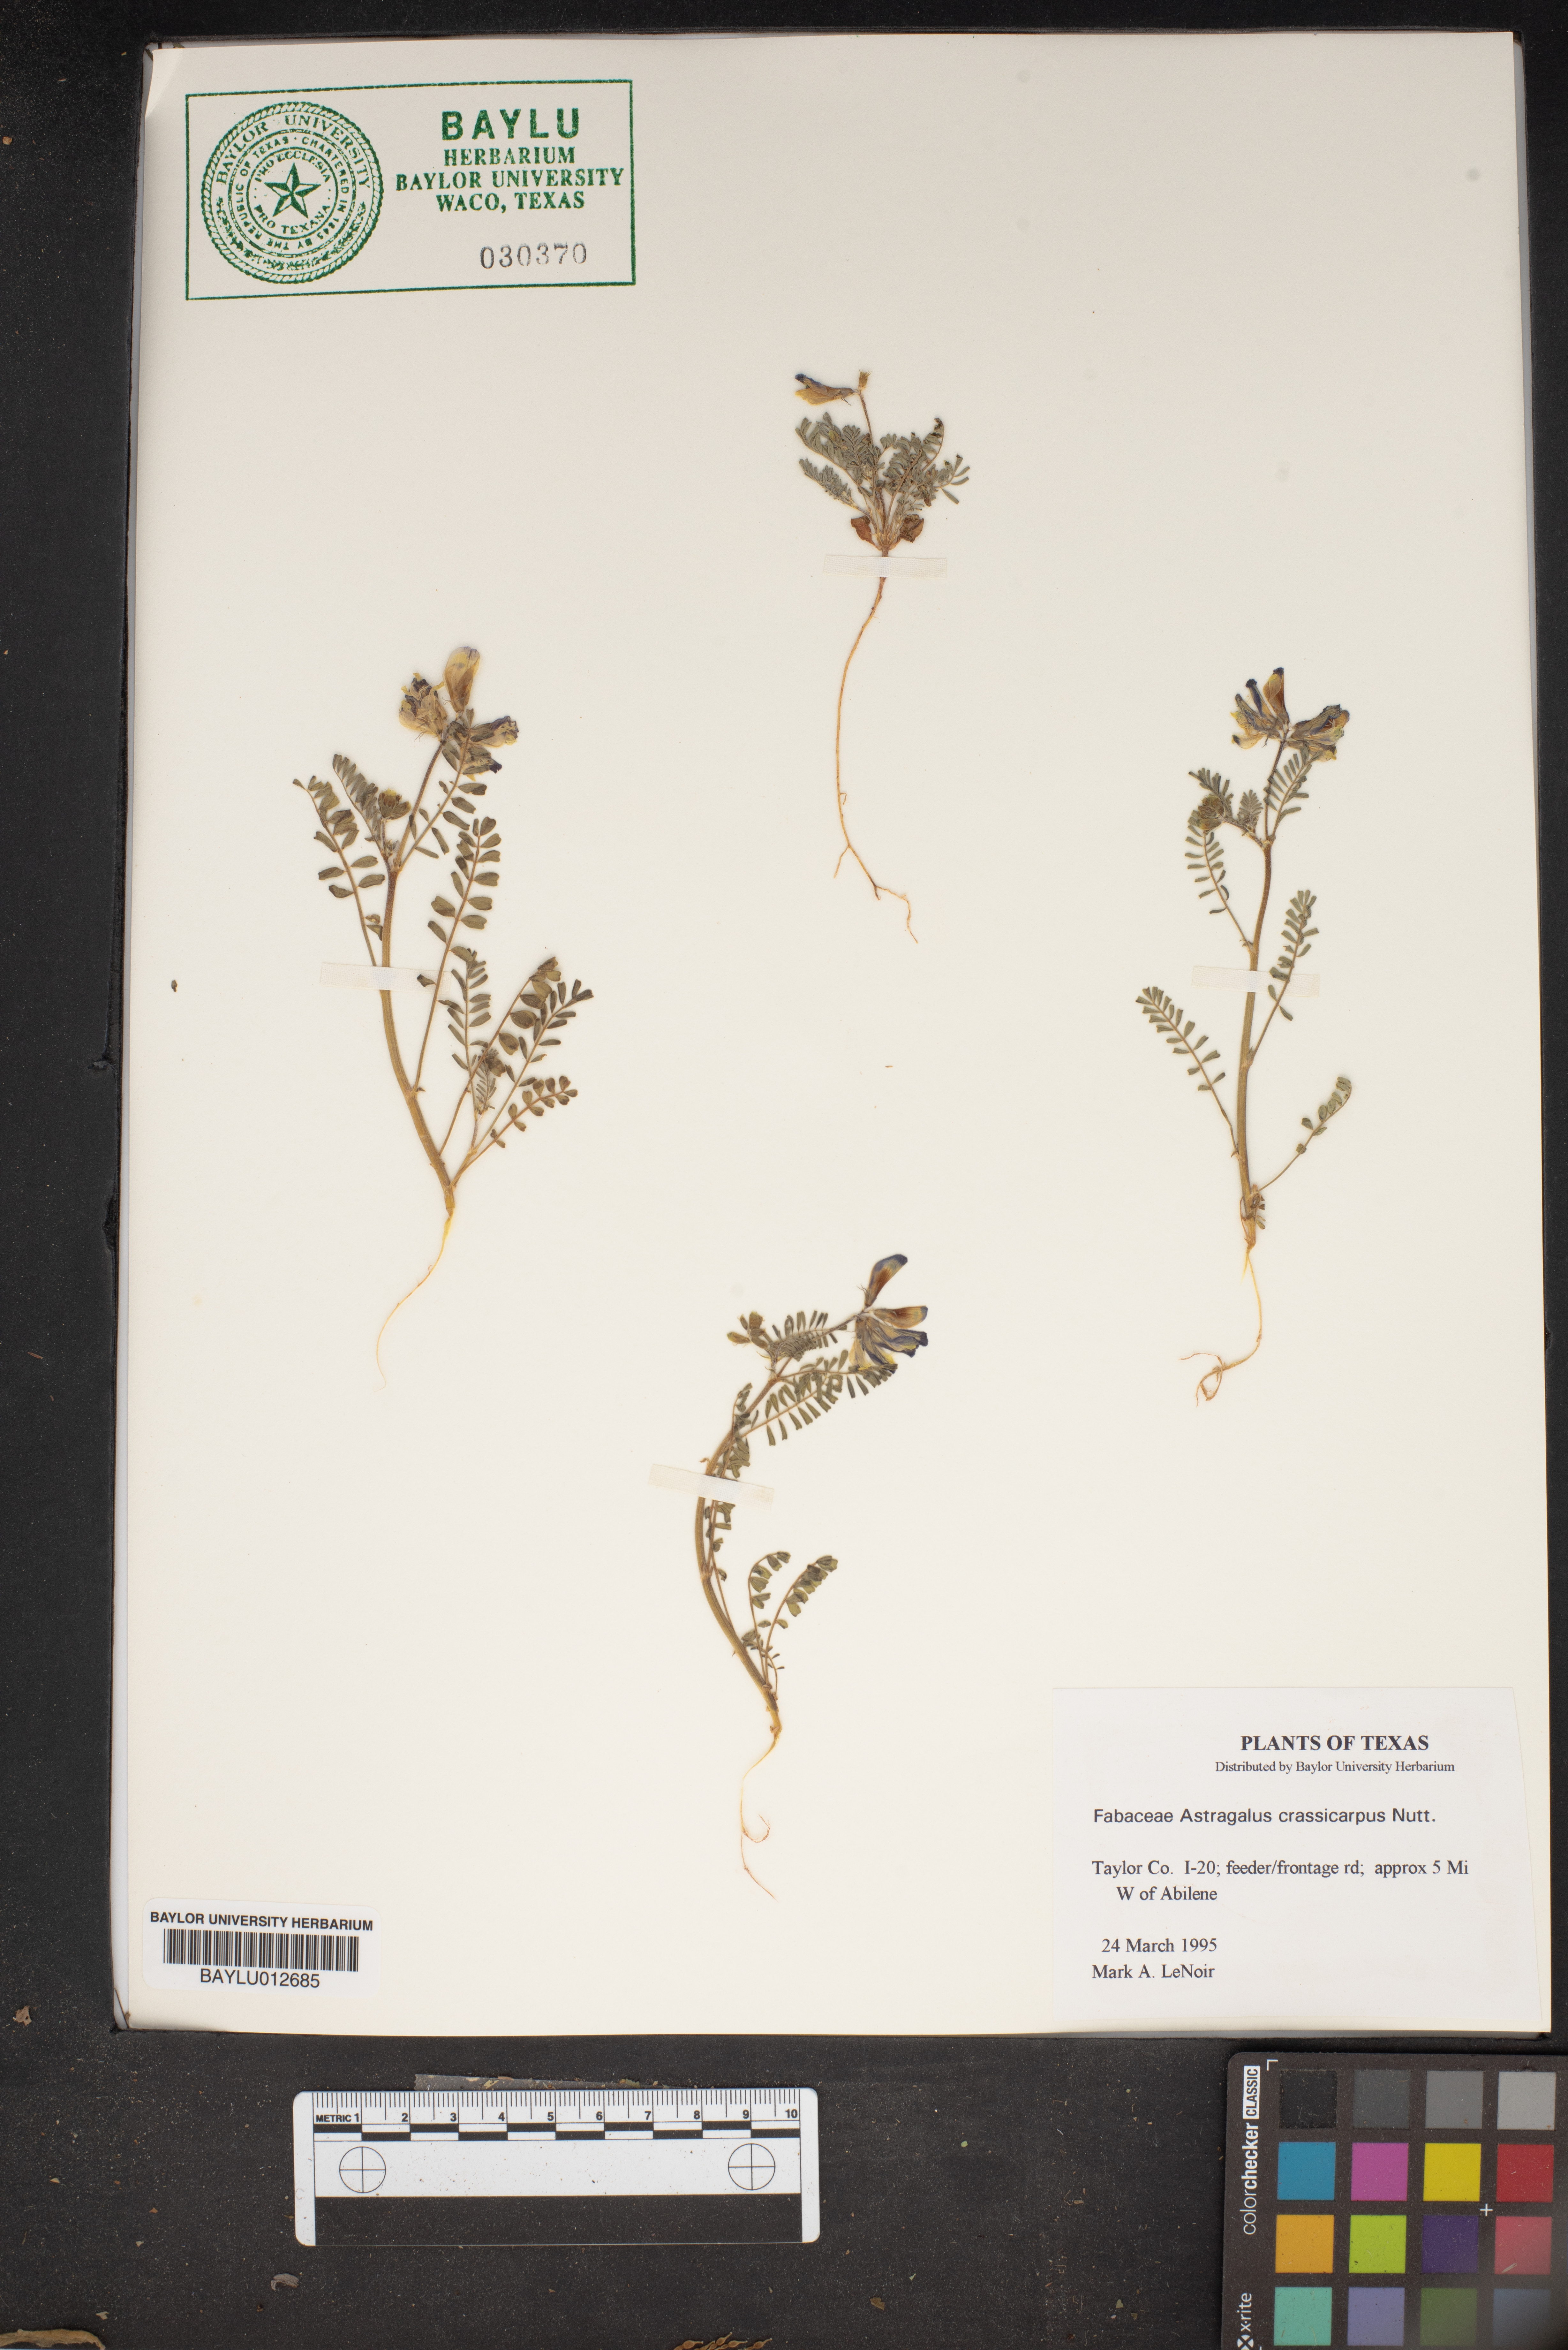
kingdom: Plantae
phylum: Tracheophyta
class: Magnoliopsida
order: Fabales
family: Fabaceae
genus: Astragalus
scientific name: Astragalus crassicarpus
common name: Ground-plum milk-vetch
